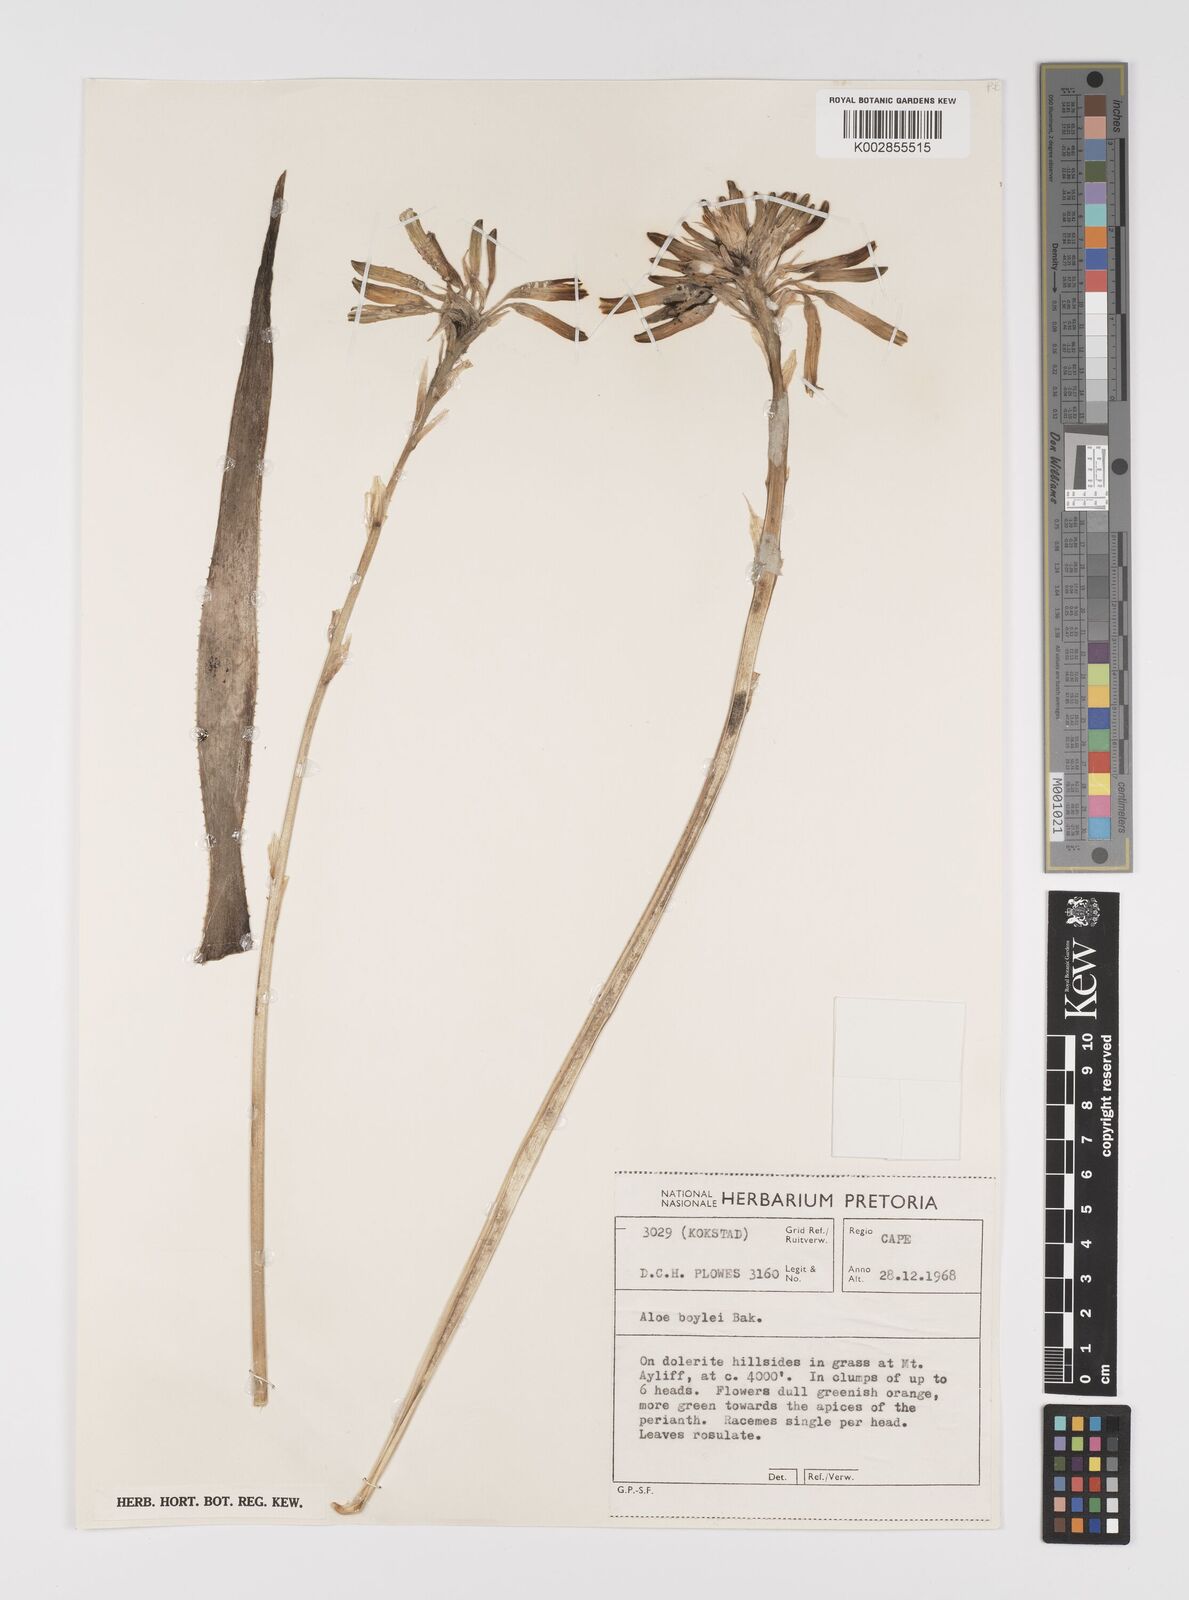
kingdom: Plantae
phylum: Tracheophyta
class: Liliopsida
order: Asparagales
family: Asphodelaceae
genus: Aloe
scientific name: Aloe boylei
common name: Broad-leaved grass aloe
